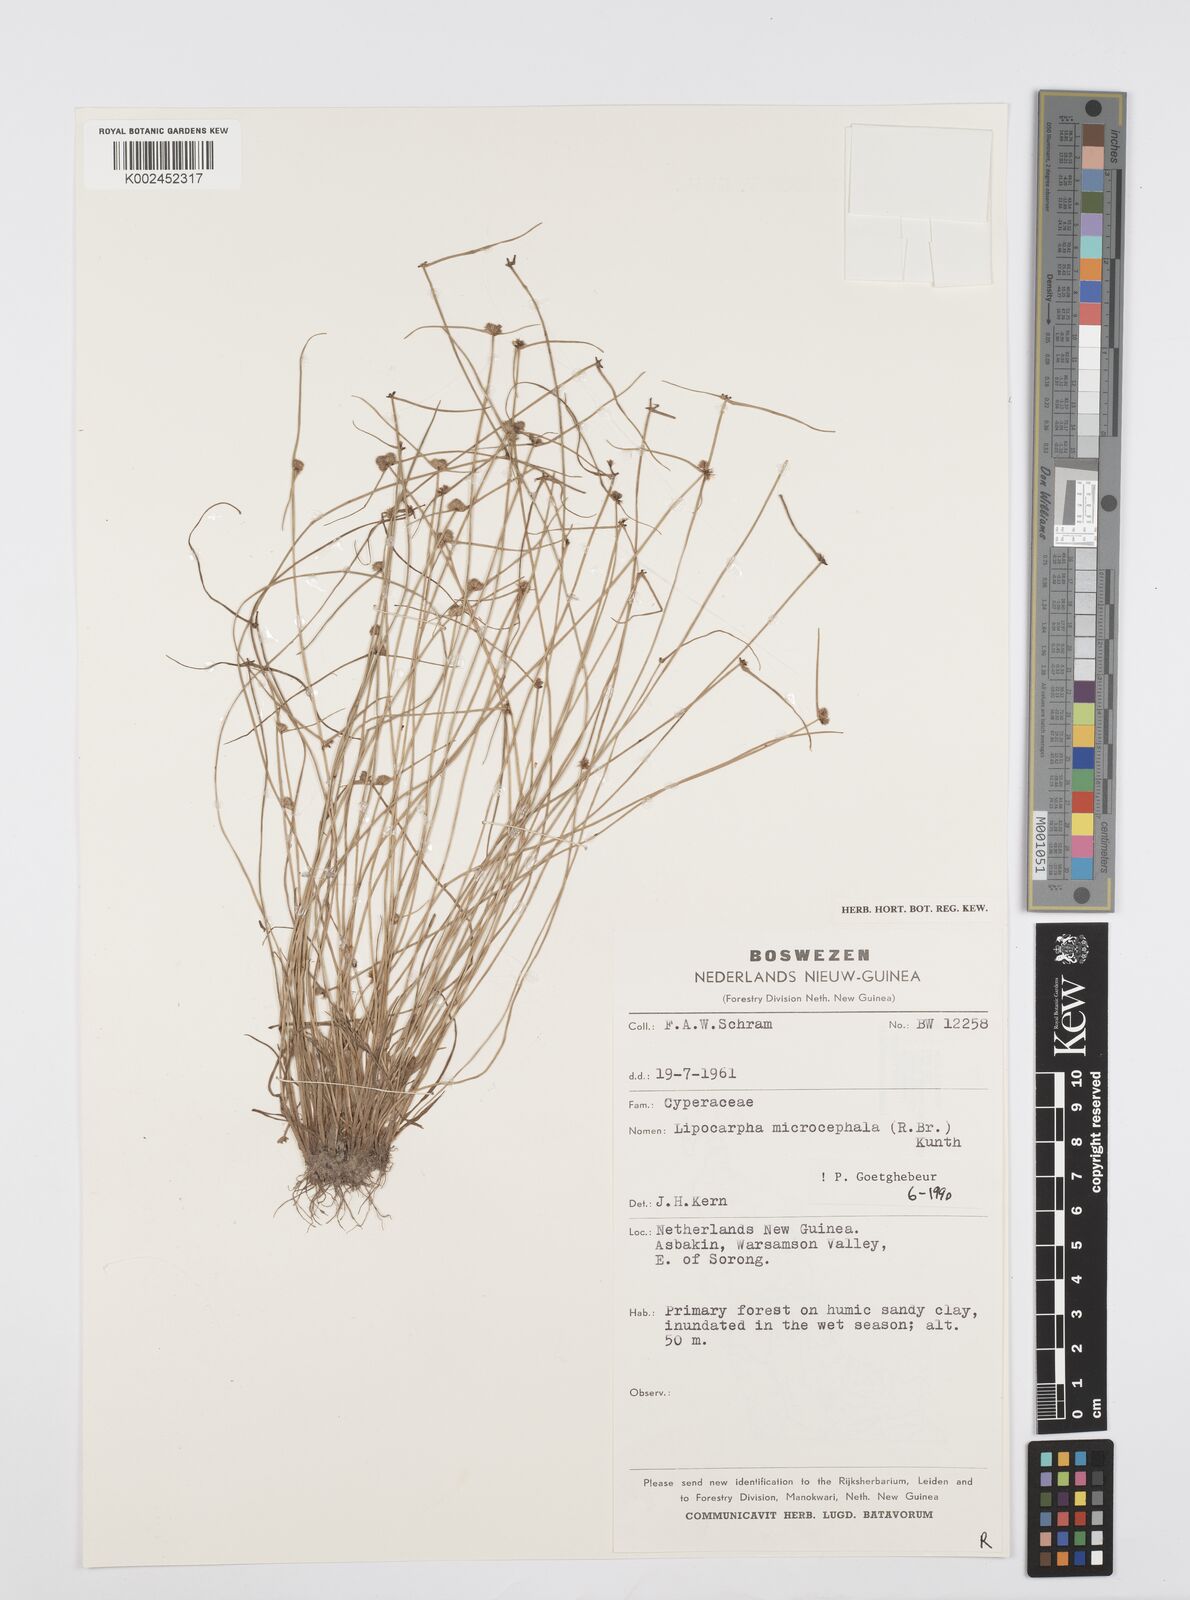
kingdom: Plantae
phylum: Tracheophyta
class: Liliopsida
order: Poales
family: Cyperaceae
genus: Cyperus
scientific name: Cyperus microcephalus
